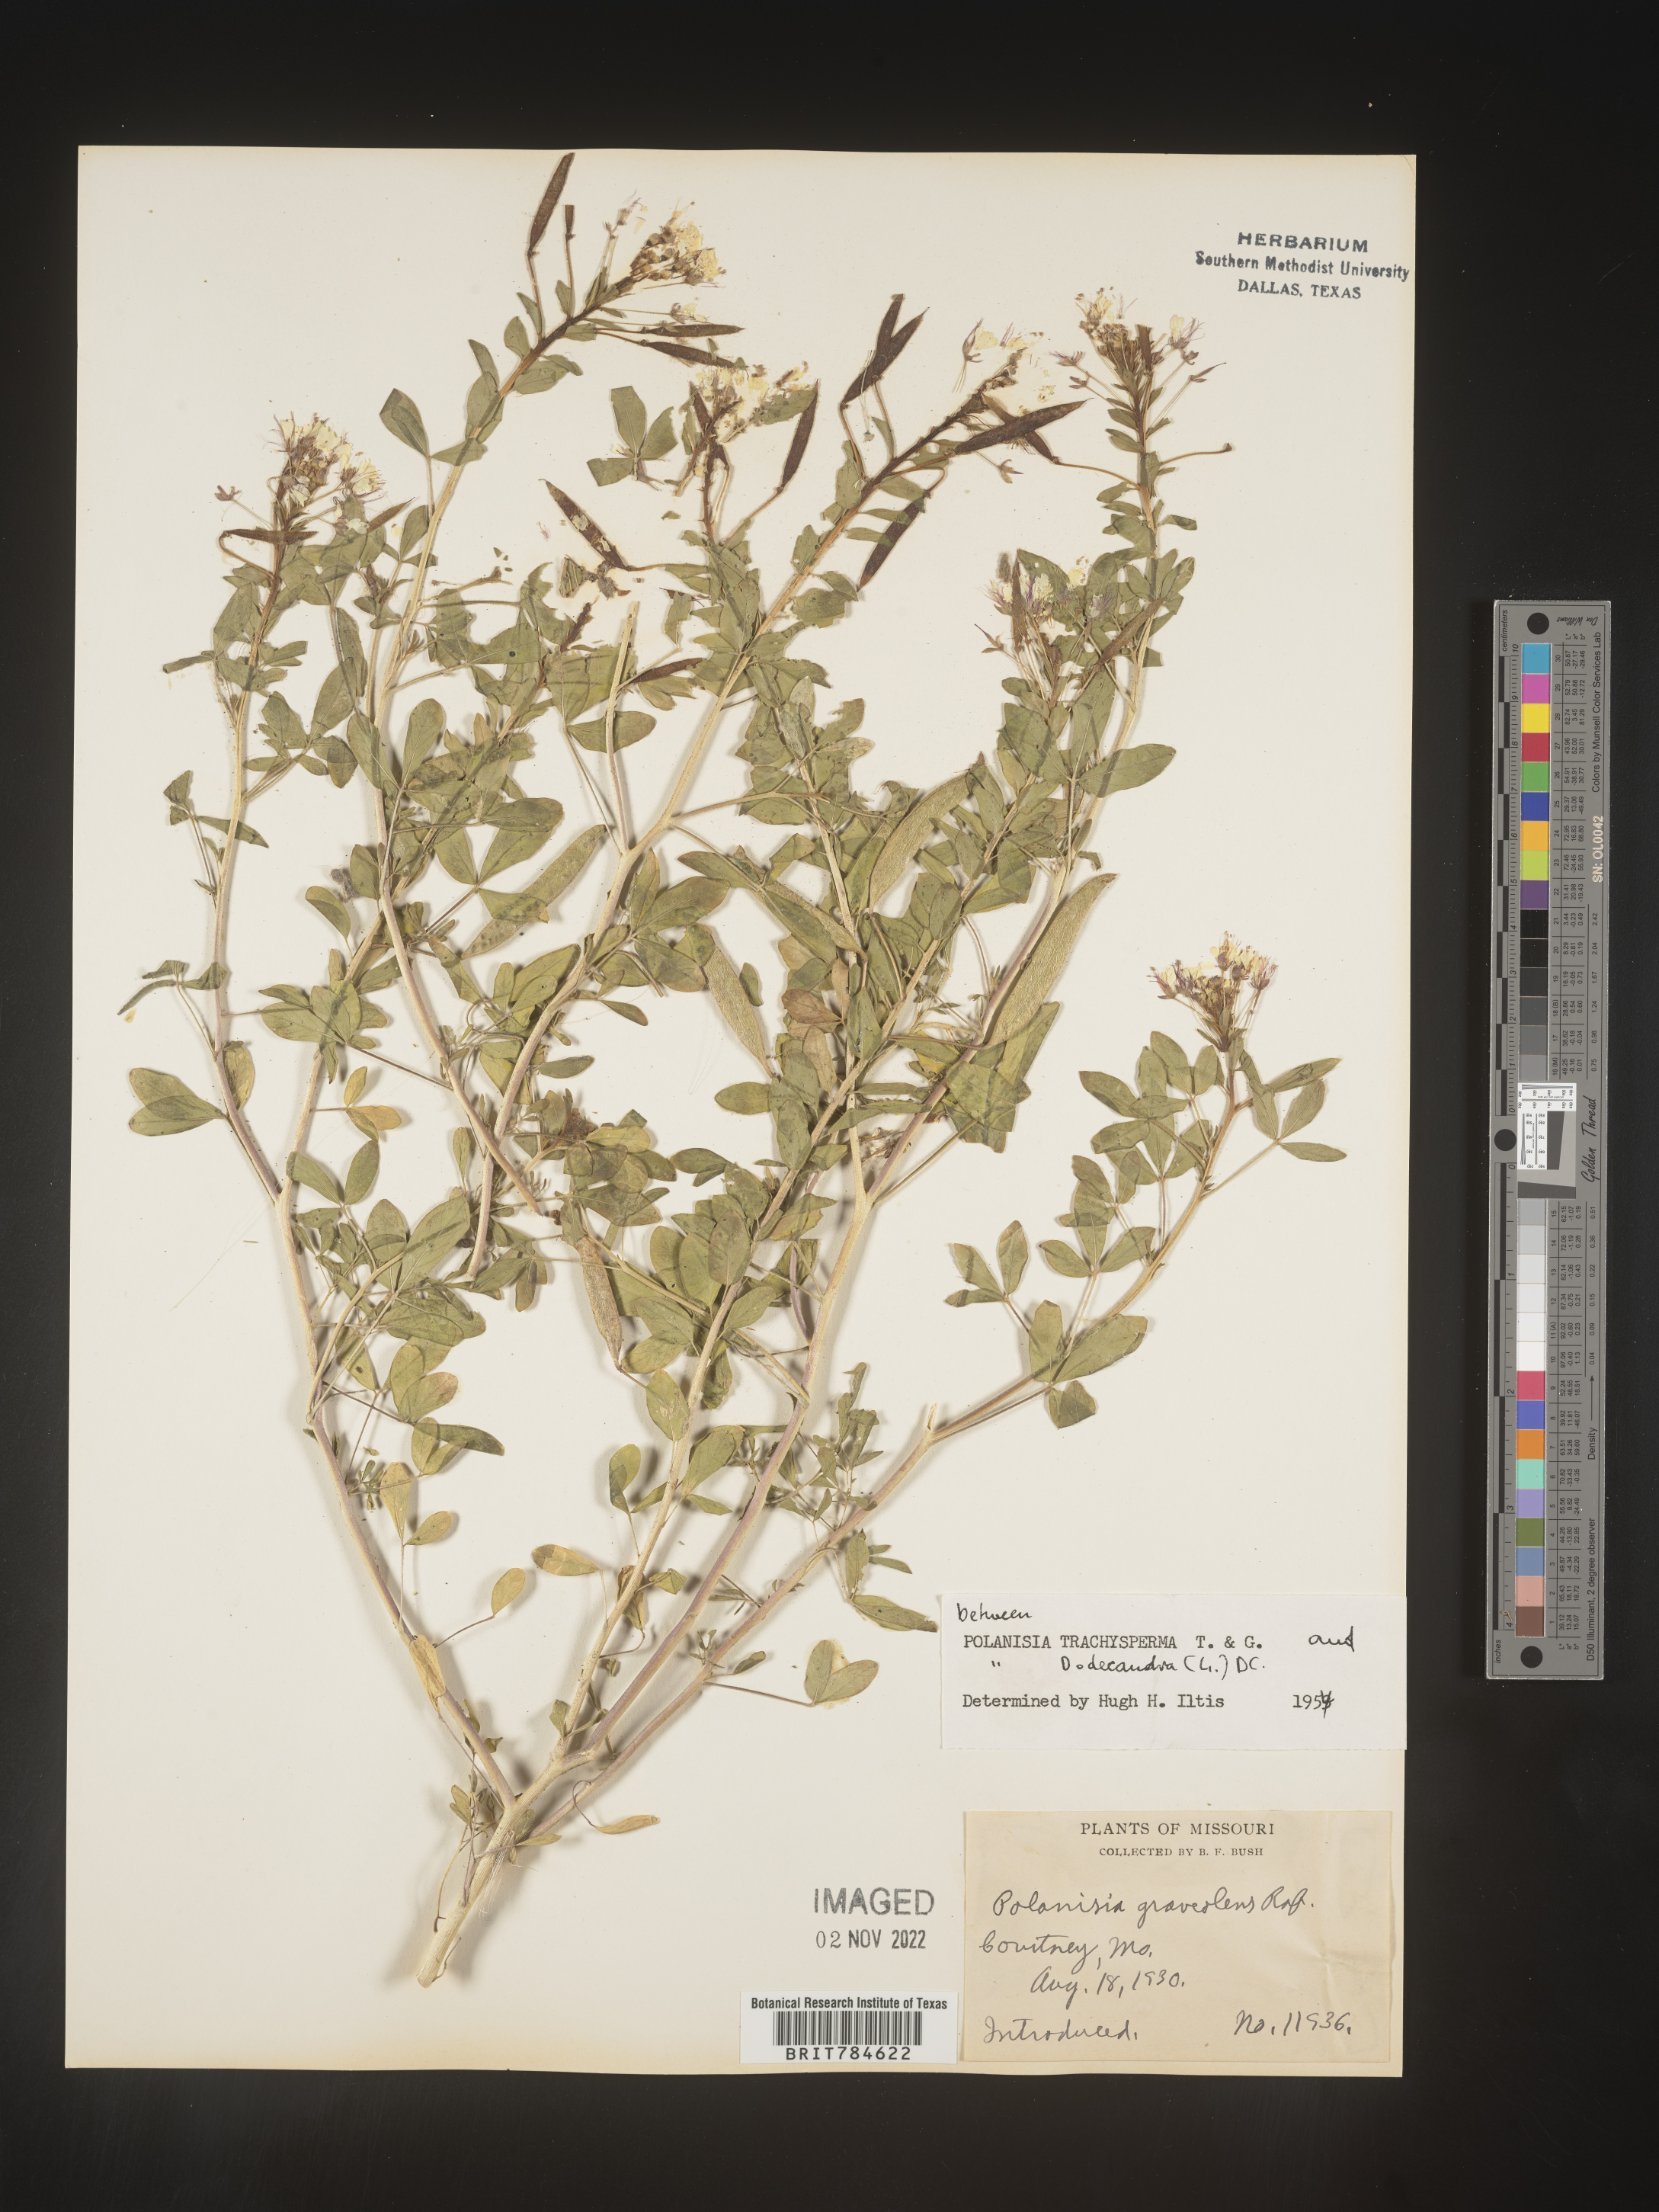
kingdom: Plantae
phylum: Tracheophyta
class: Magnoliopsida
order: Brassicales
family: Cleomaceae
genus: Polanisia
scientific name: Polanisia dodecandra
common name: Clammyweed
